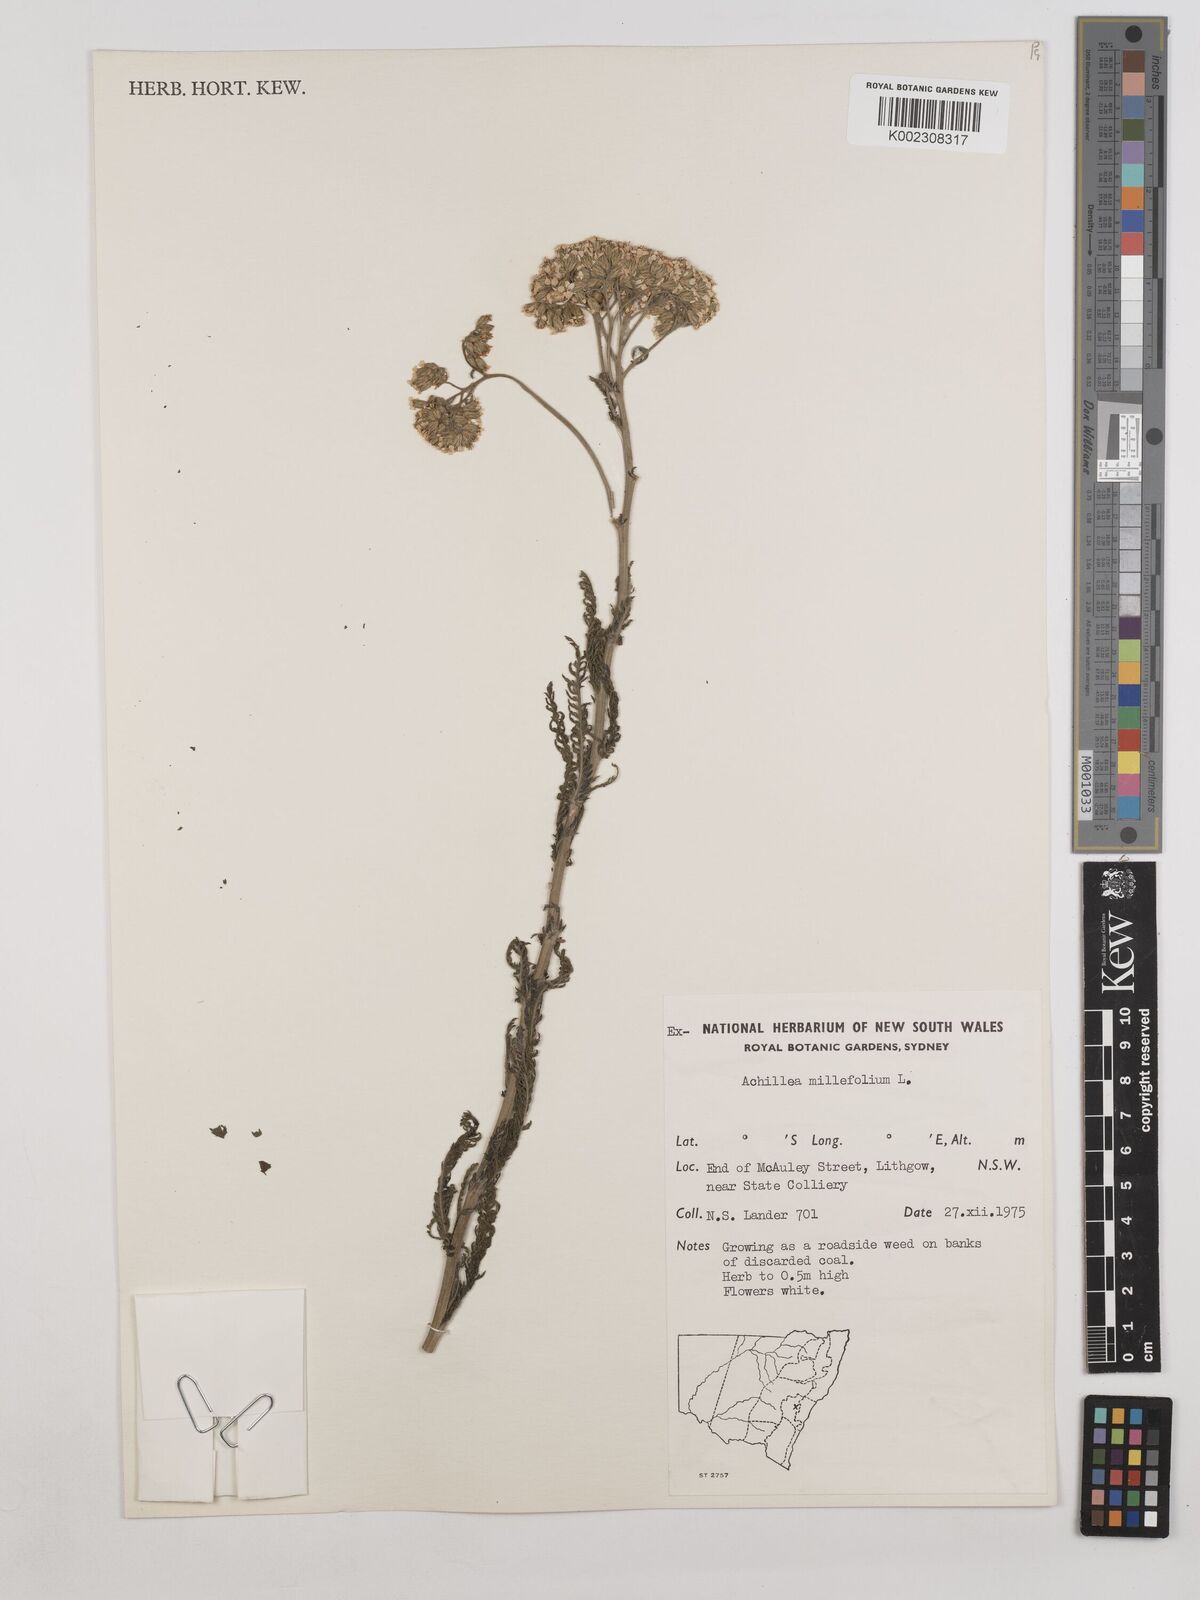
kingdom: Plantae
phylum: Tracheophyta
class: Magnoliopsida
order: Asterales
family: Asteraceae
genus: Achillea
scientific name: Achillea millefolium
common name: Yarrow
